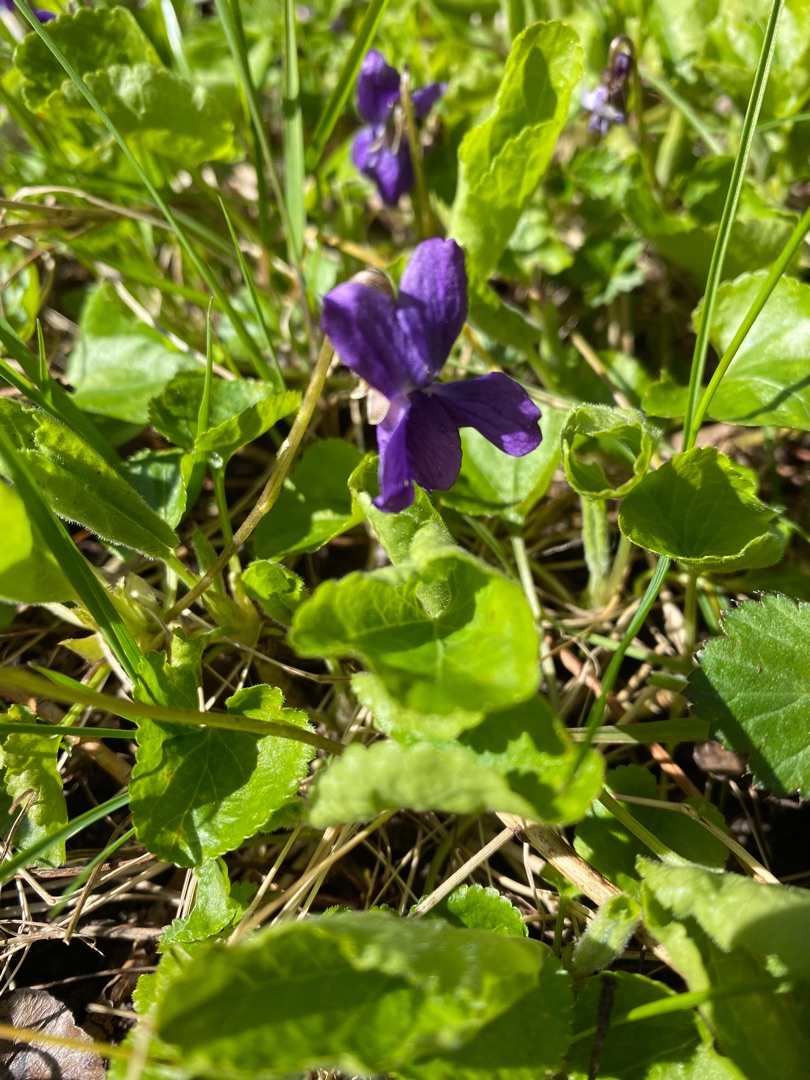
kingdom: Plantae
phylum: Tracheophyta
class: Magnoliopsida
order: Malpighiales
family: Violaceae
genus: Viola
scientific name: Viola odorata
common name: Marts-viol
